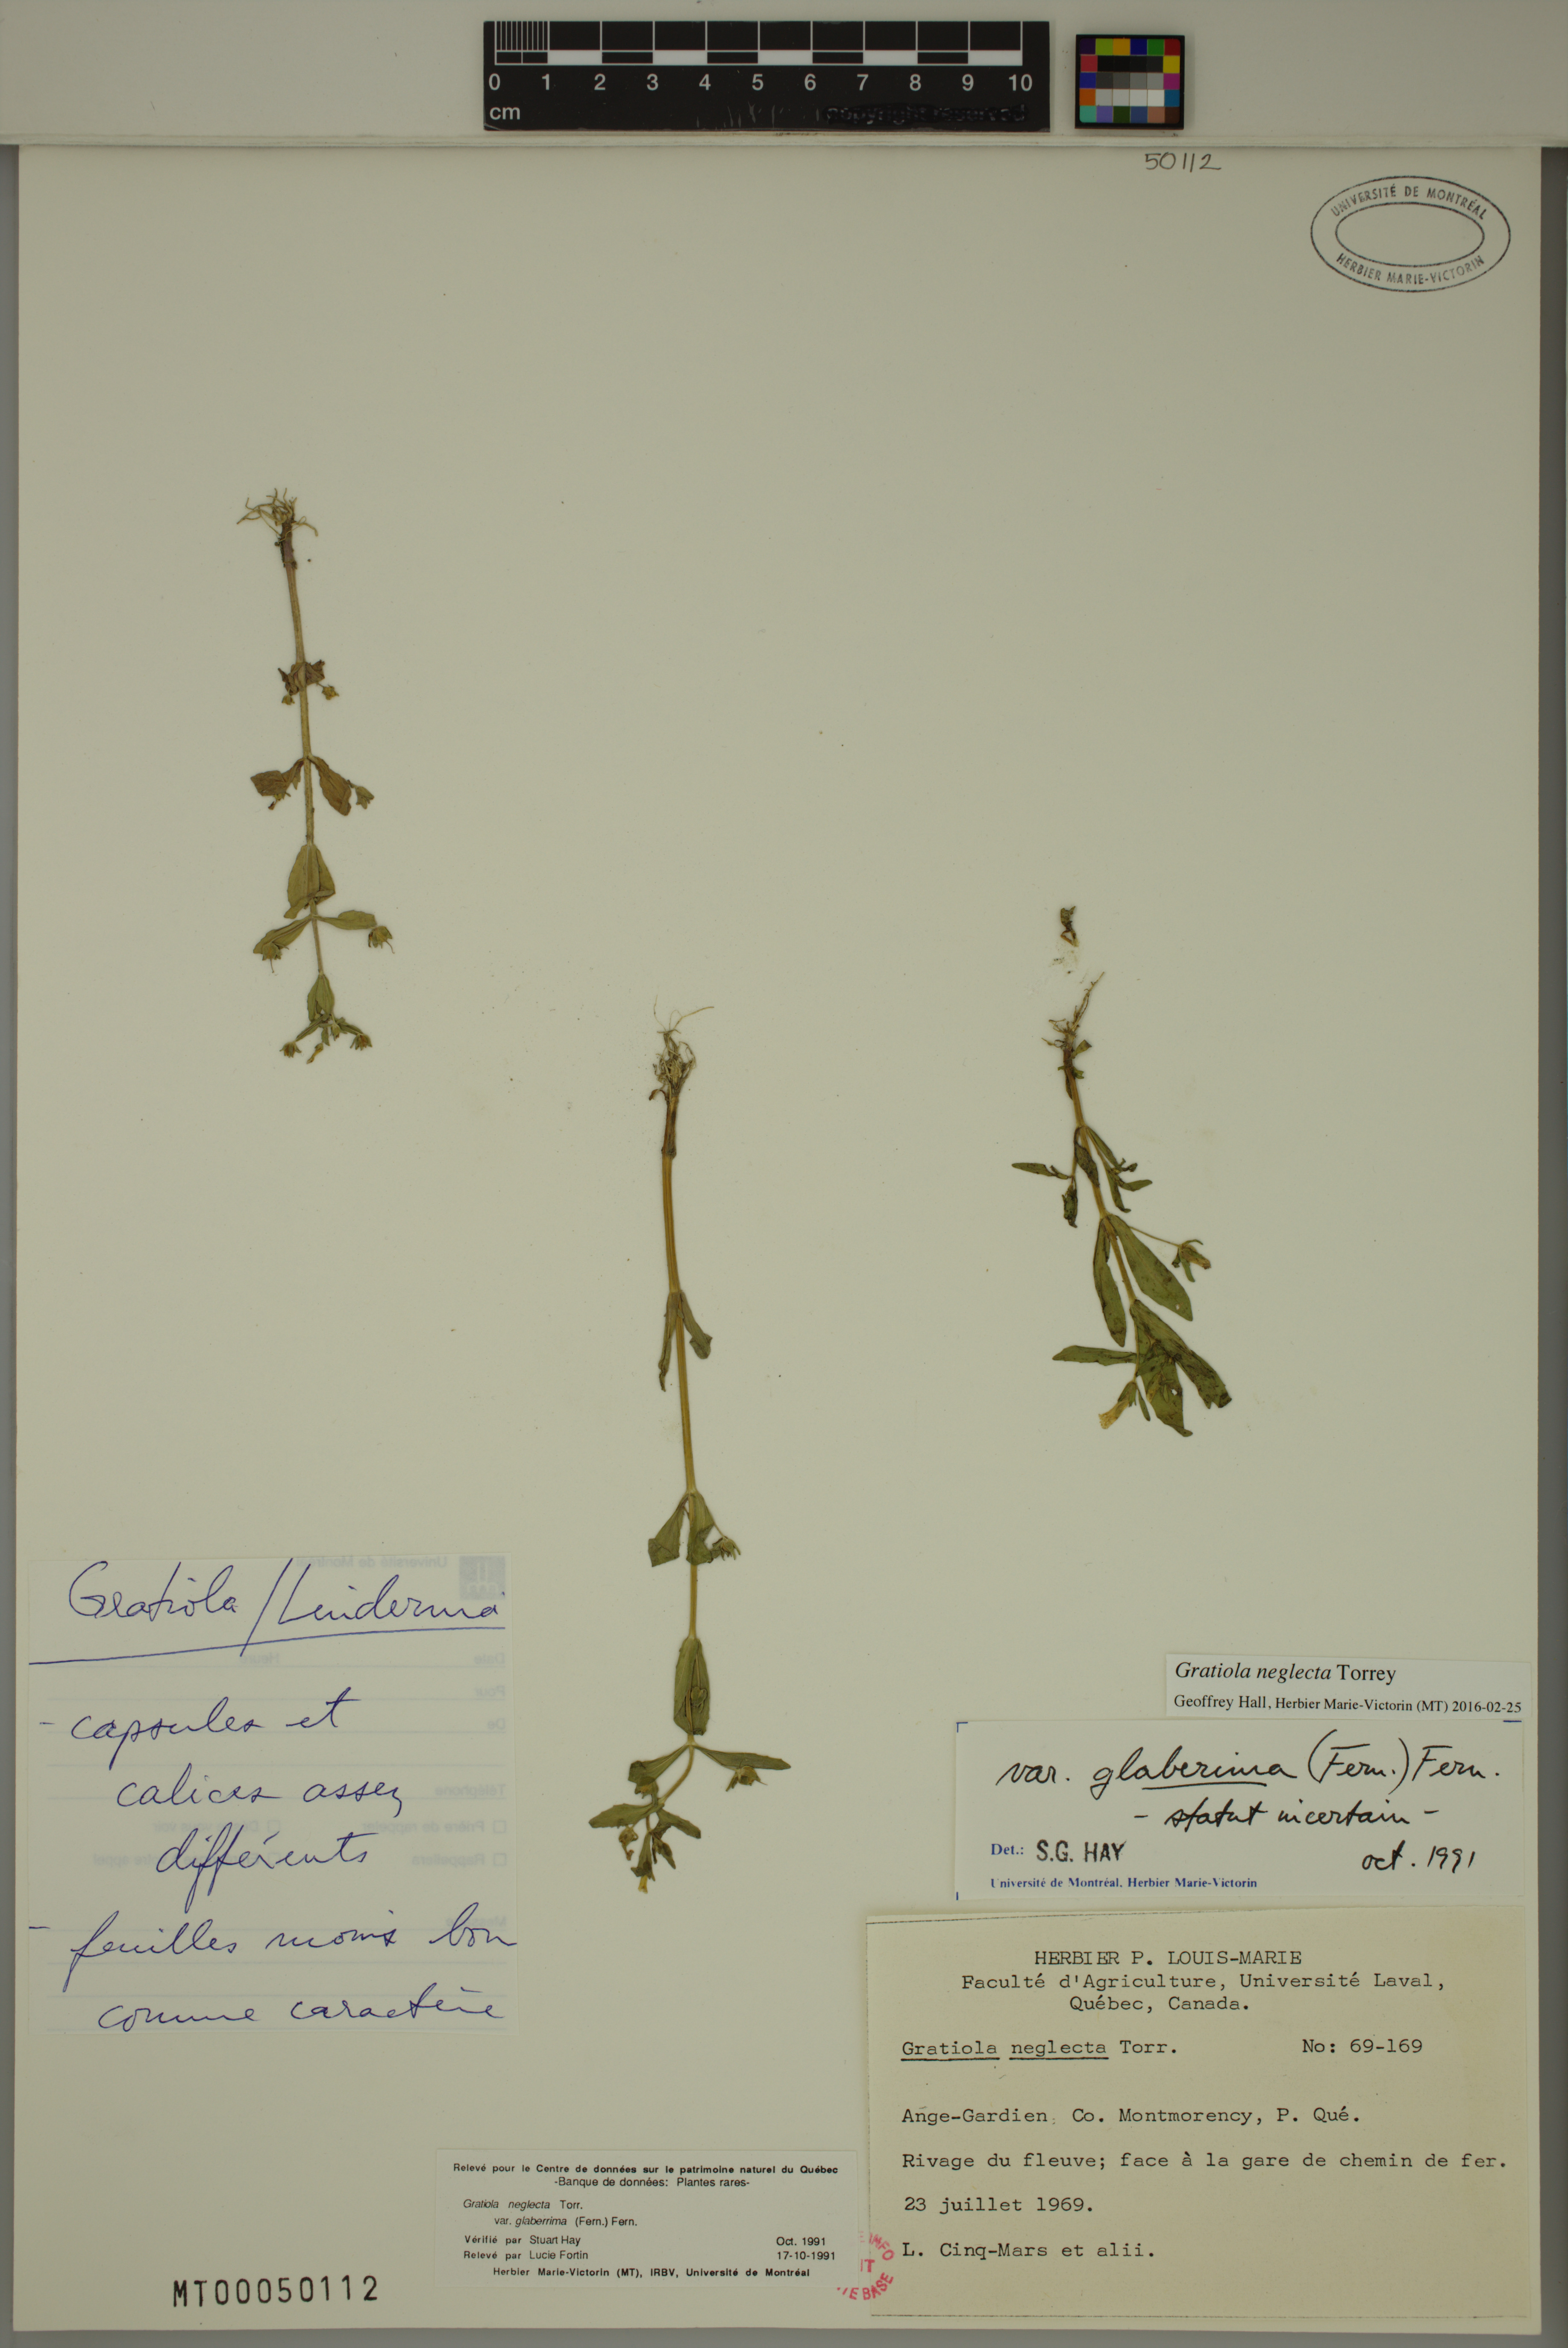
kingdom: Plantae
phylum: Tracheophyta
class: Magnoliopsida
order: Lamiales
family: Plantaginaceae
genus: Gratiola
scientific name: Gratiola neglecta
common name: American hedge-hyssop
